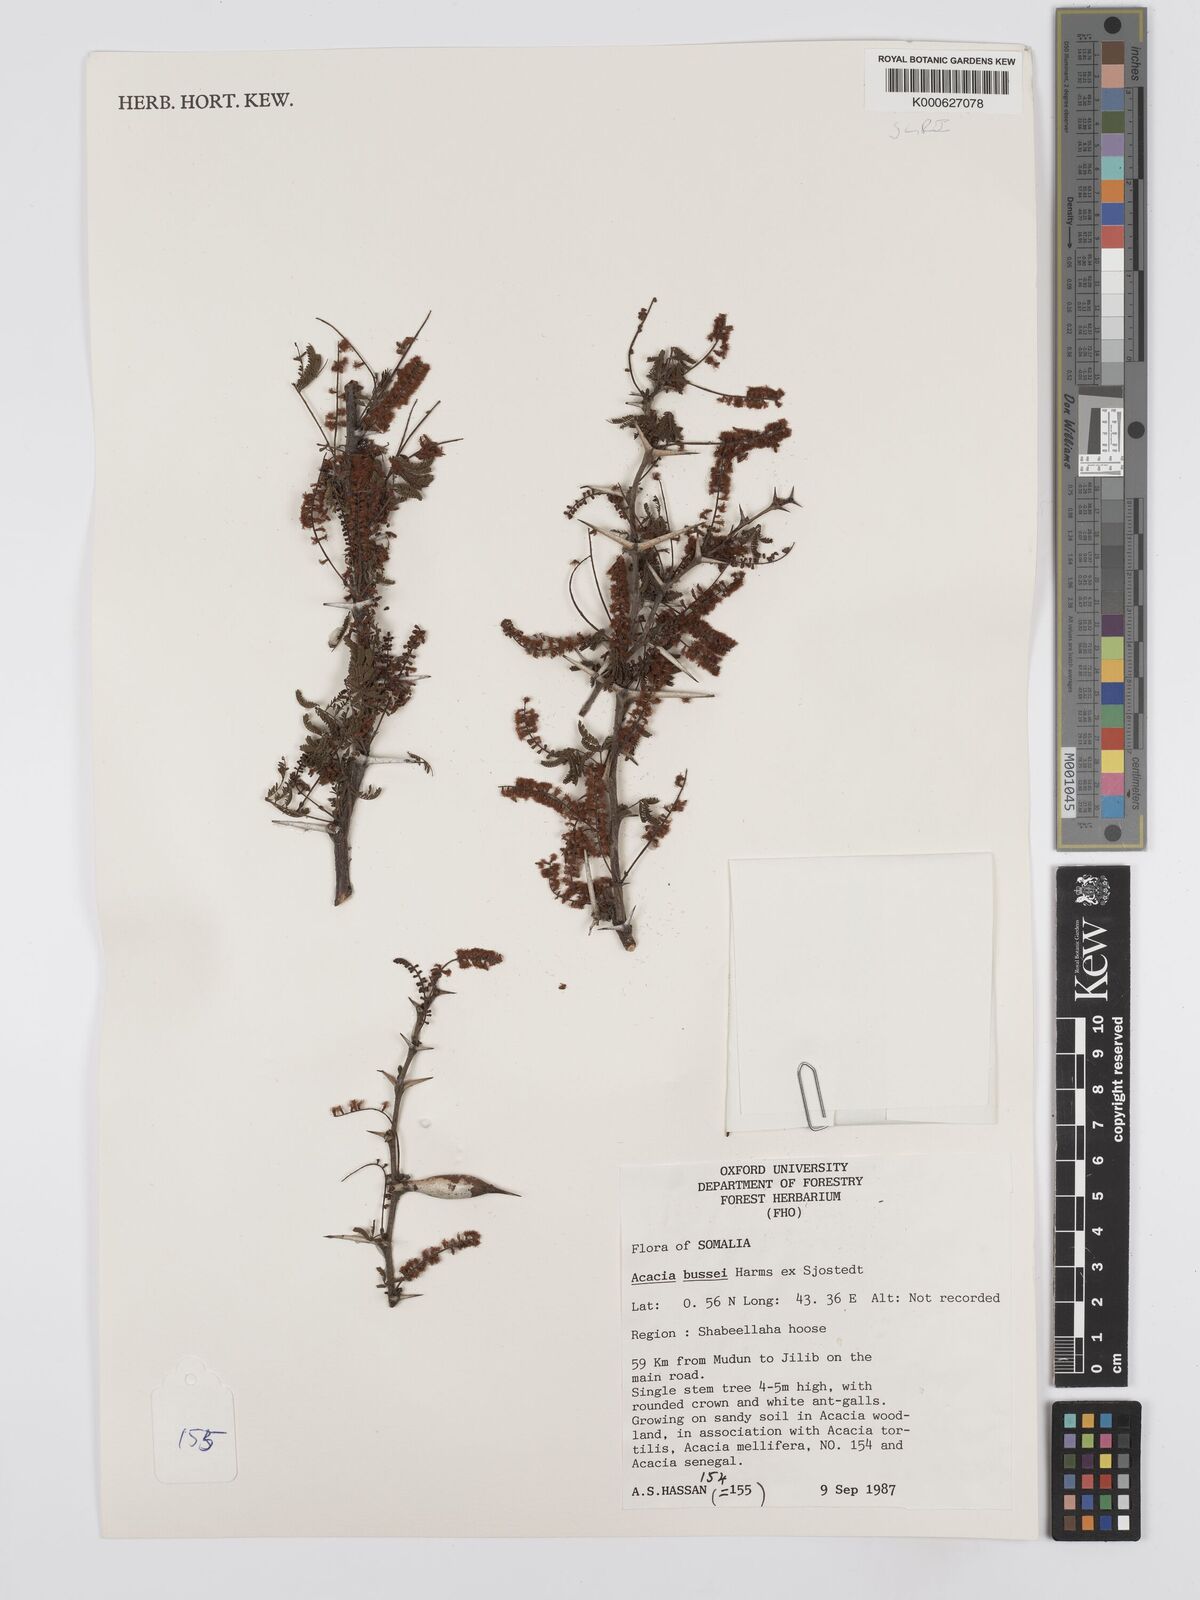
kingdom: Plantae
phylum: Tracheophyta
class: Magnoliopsida
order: Fabales
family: Fabaceae
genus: Vachellia
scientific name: Vachellia bussei
